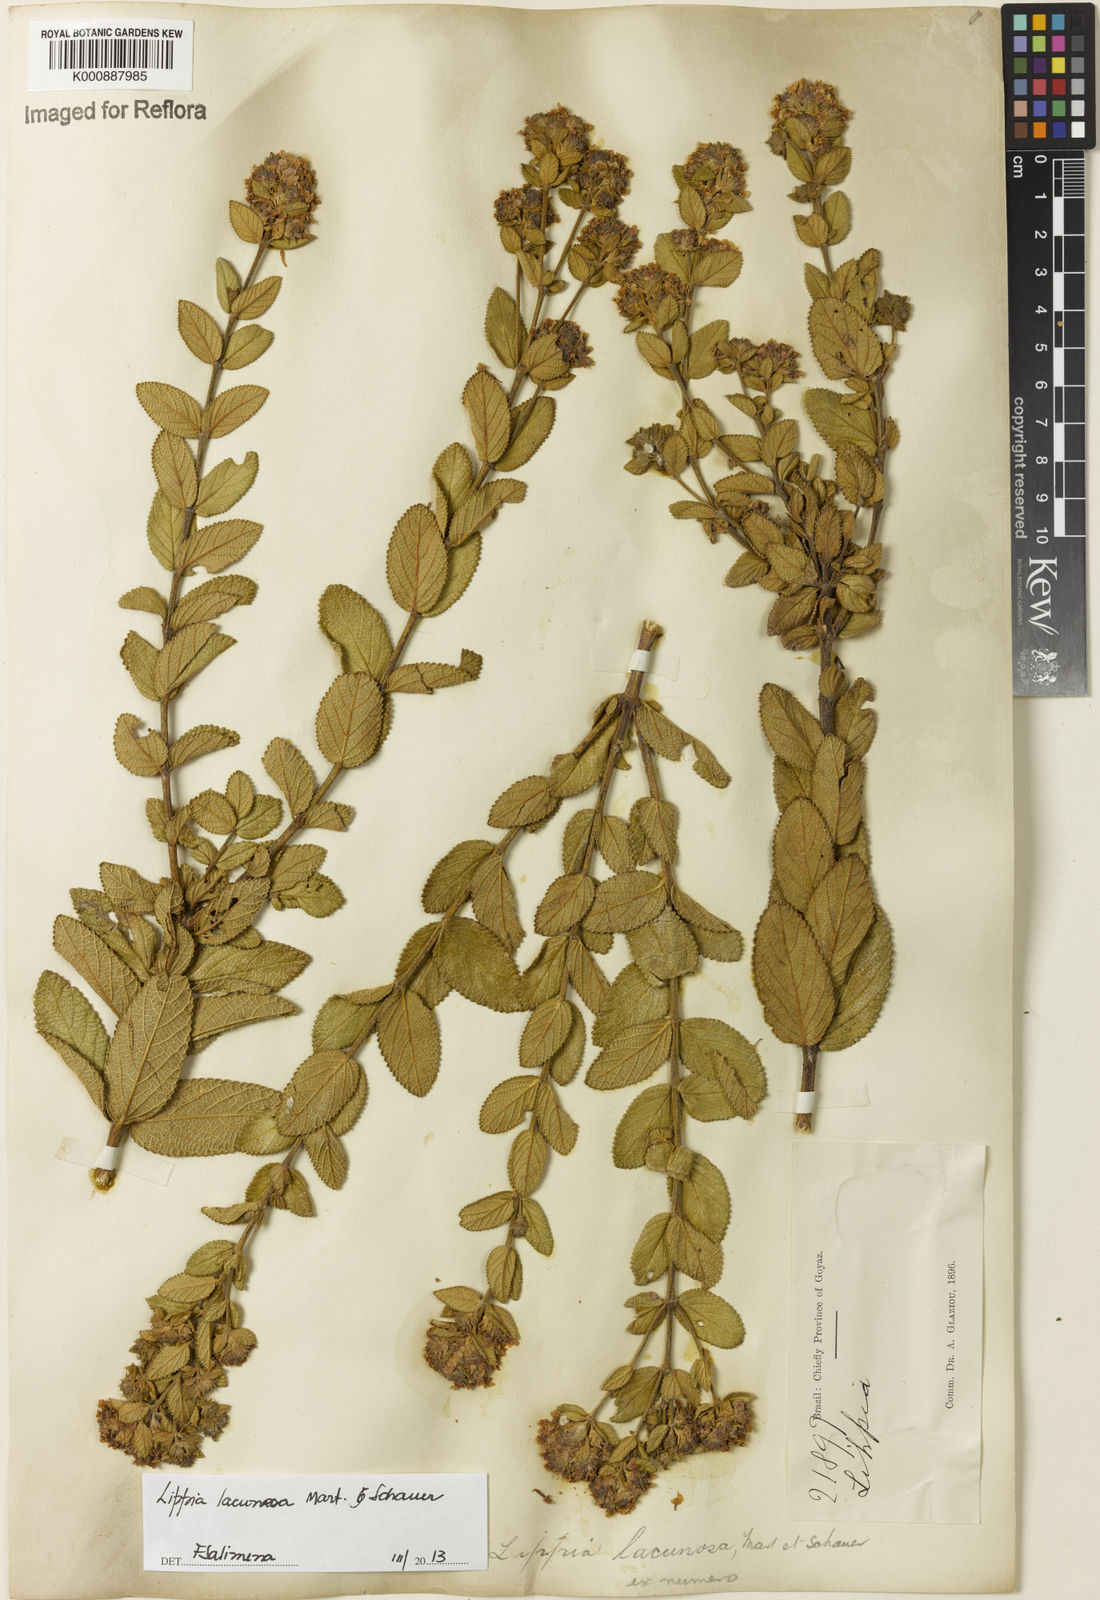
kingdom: Plantae
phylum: Tracheophyta
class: Magnoliopsida
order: Lamiales
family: Verbenaceae
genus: Lippia
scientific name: Lippia lacunosa
